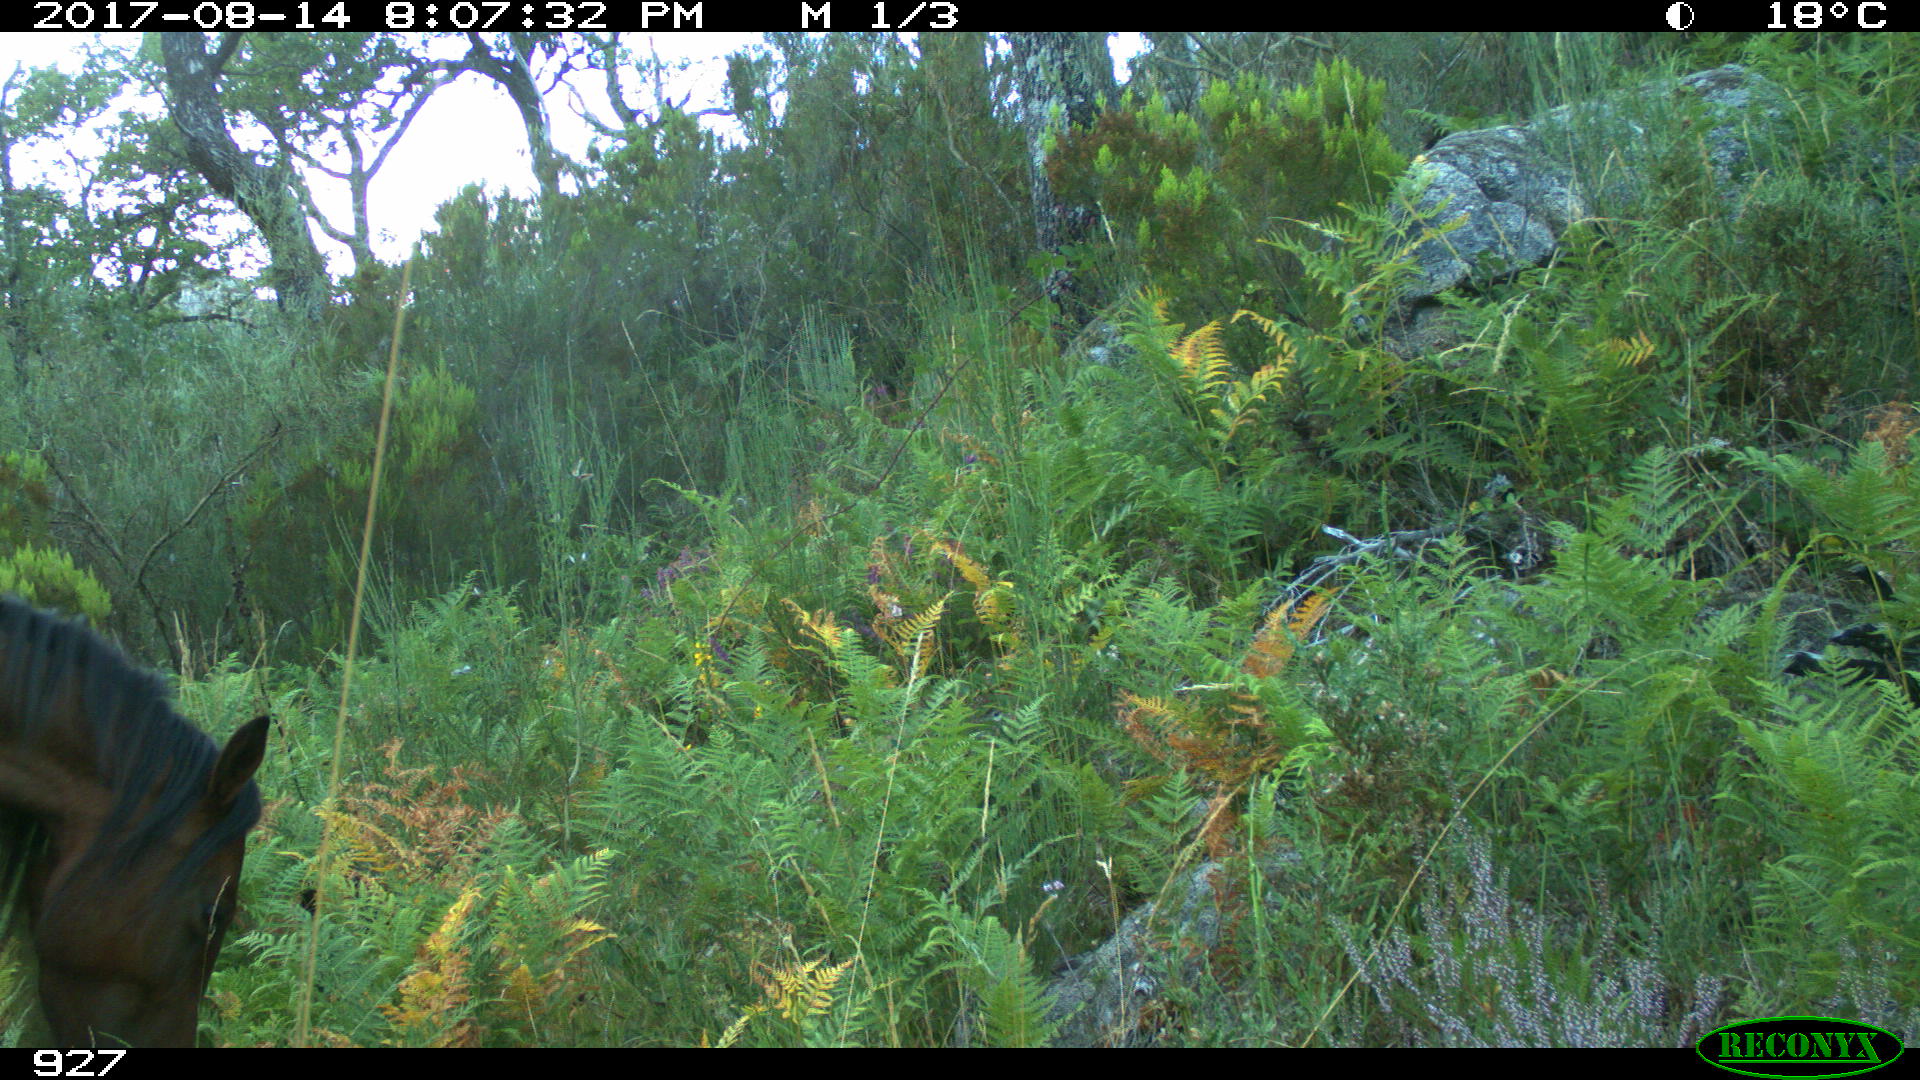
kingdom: Animalia
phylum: Chordata
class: Mammalia
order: Perissodactyla
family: Equidae
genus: Equus
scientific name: Equus caballus
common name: Horse
